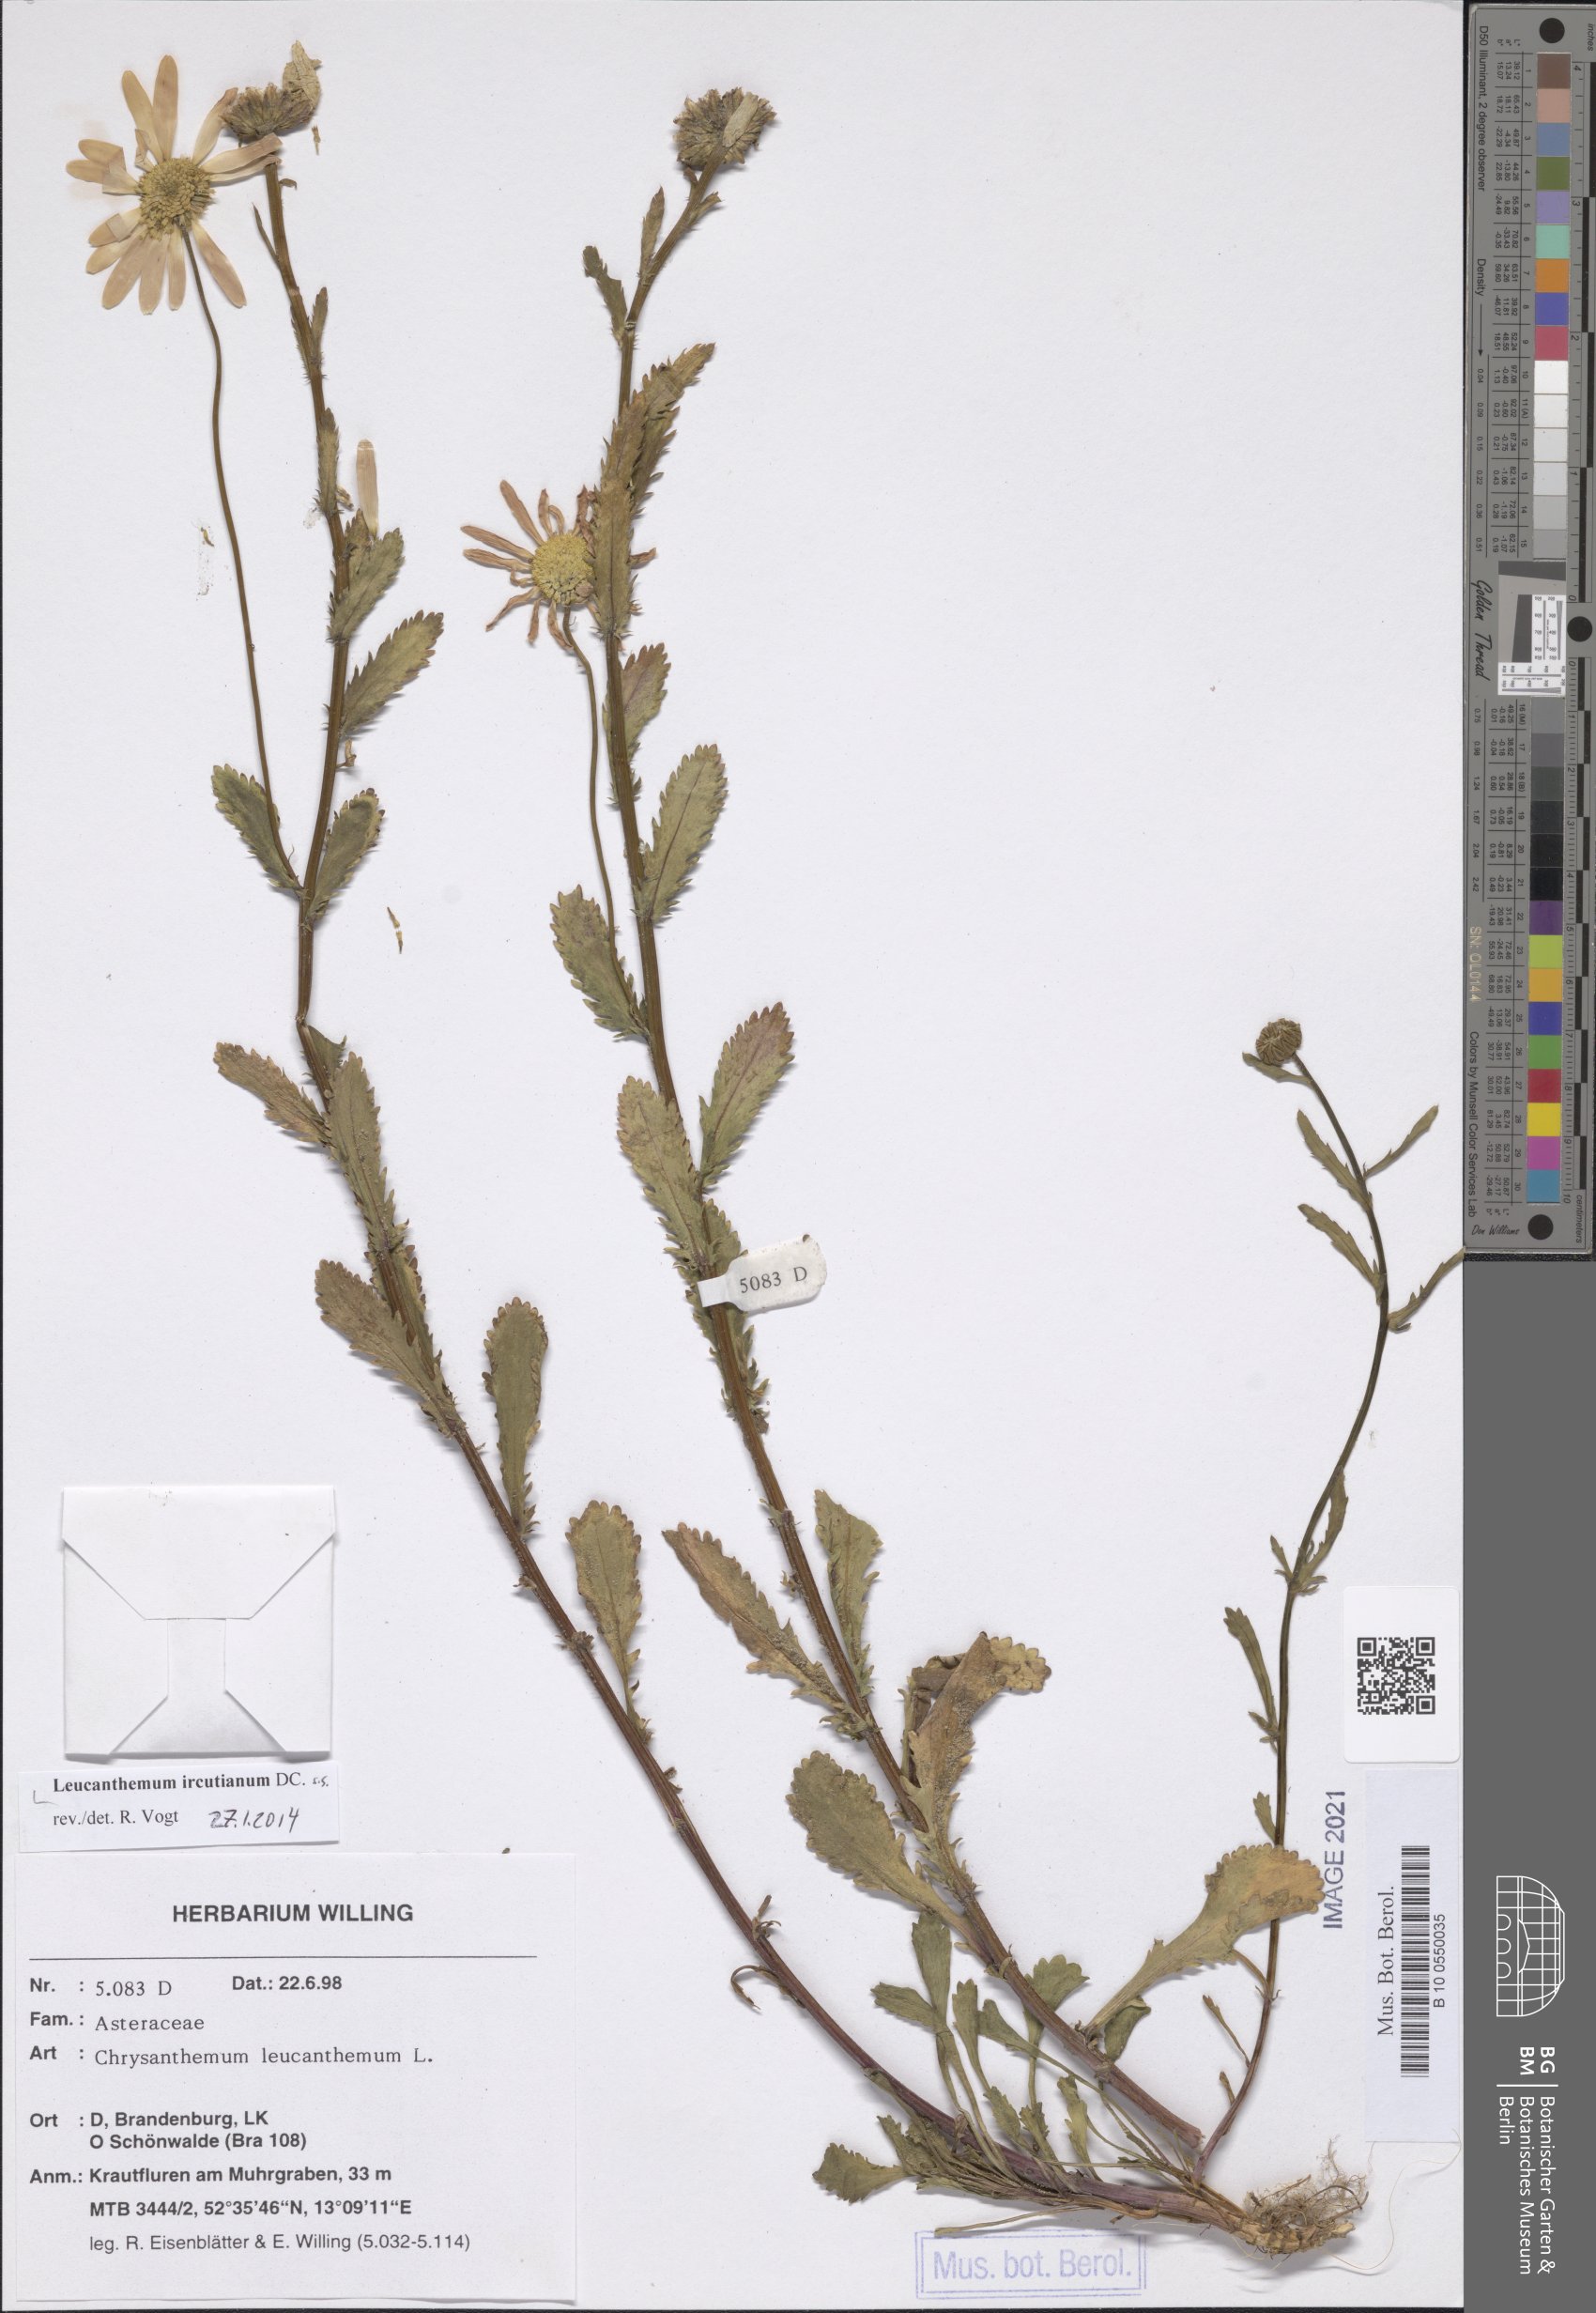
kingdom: Plantae
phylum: Tracheophyta
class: Magnoliopsida
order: Asterales
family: Asteraceae
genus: Leucanthemum
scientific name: Leucanthemum ircutianum
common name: Daisy
